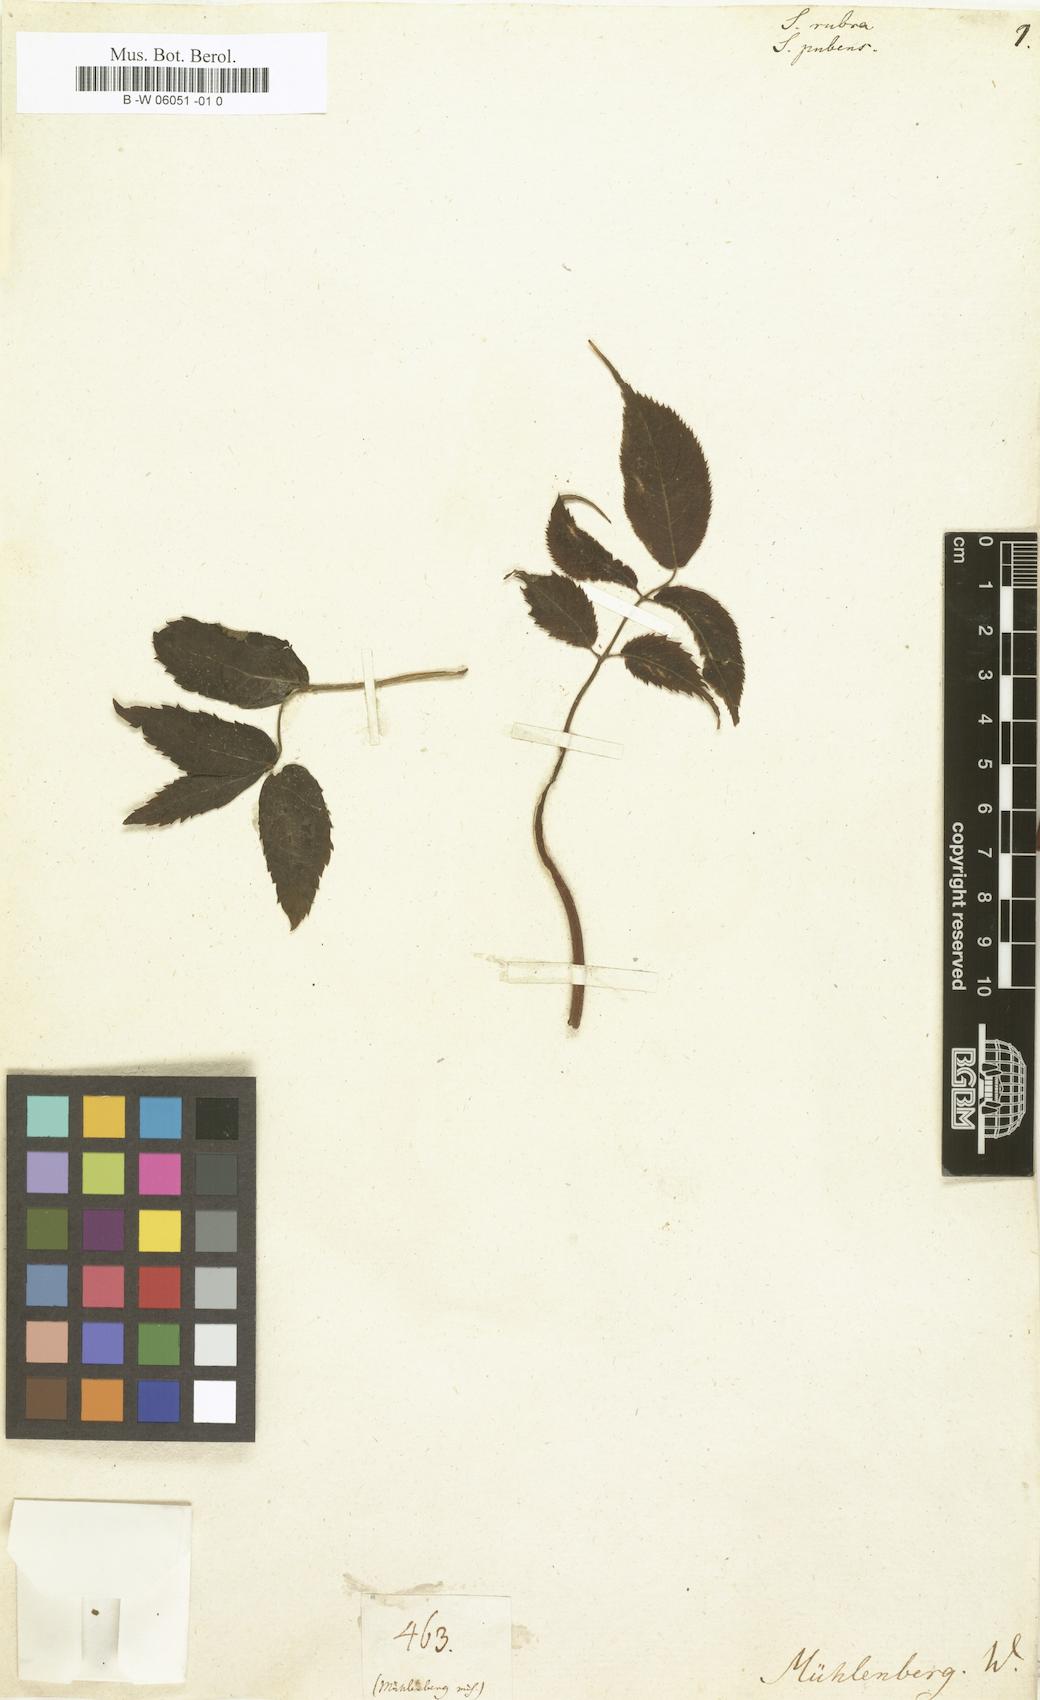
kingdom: Plantae
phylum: Tracheophyta
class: Magnoliopsida
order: Dipsacales
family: Viburnaceae
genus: Sambucus
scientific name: Sambucus javanica
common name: Chinese elder
